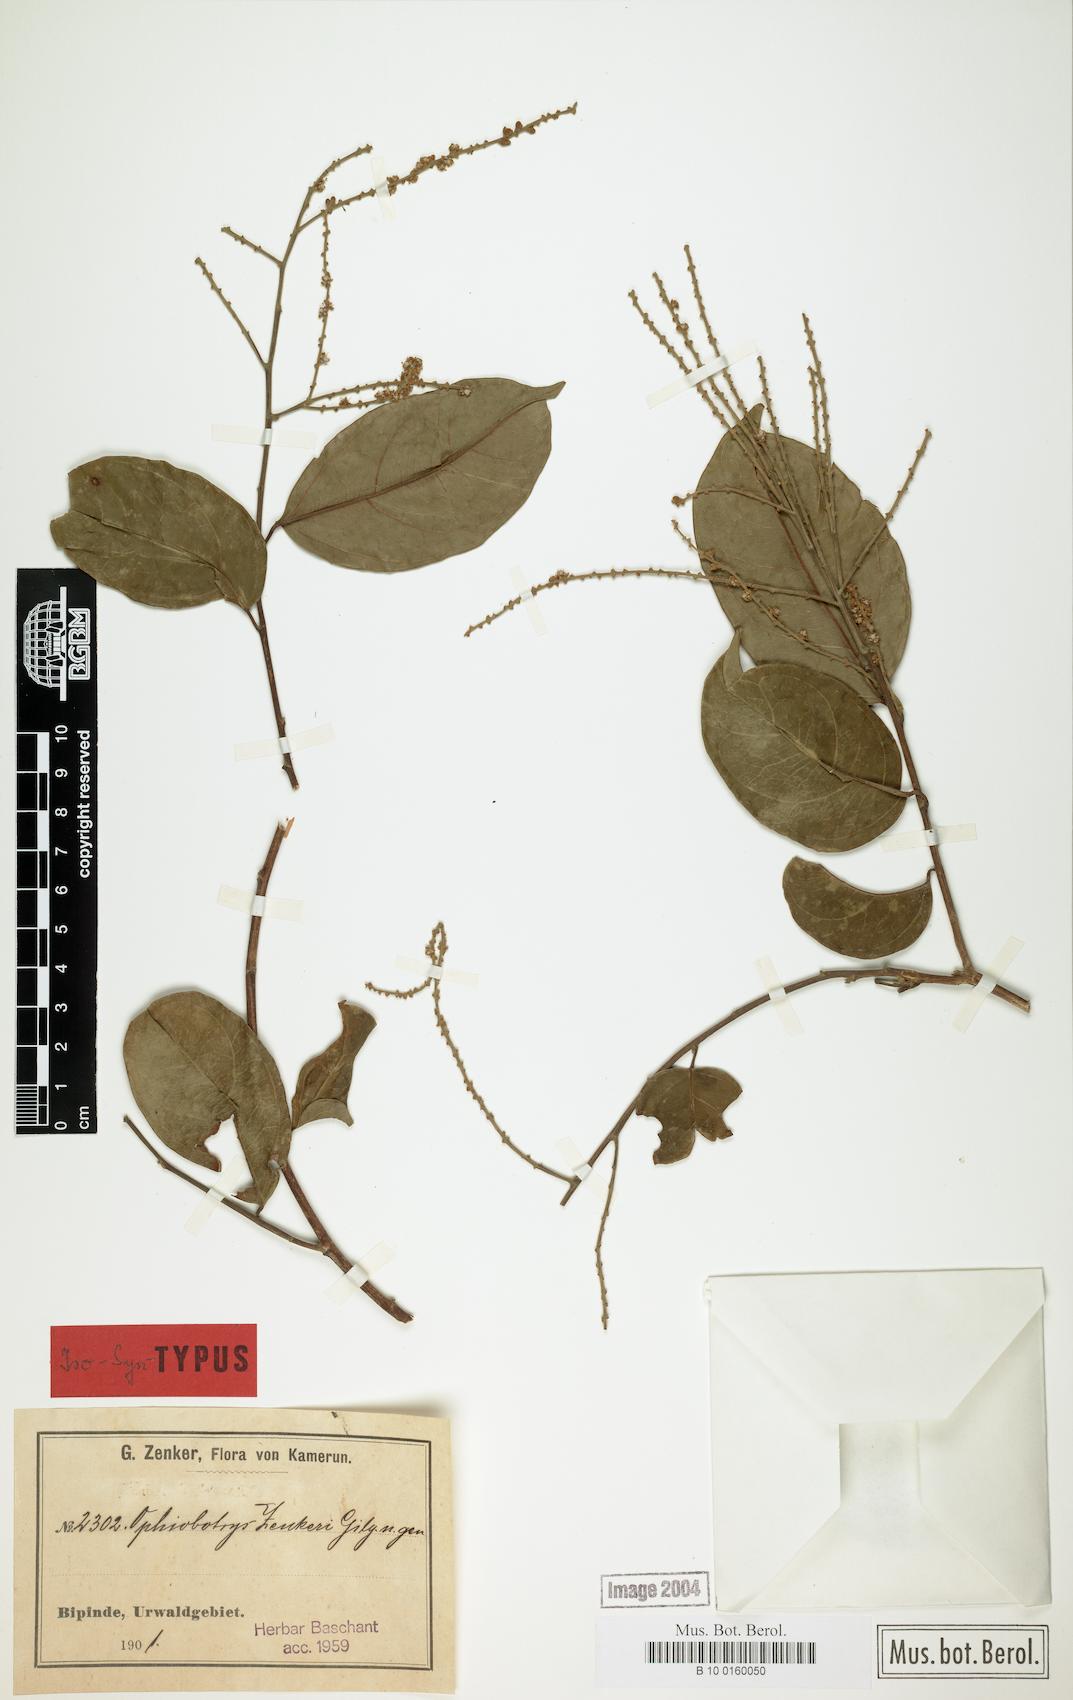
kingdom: Plantae
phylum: Tracheophyta
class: Magnoliopsida
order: Malpighiales
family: Salicaceae
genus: Ophiobotrys
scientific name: Ophiobotrys zenkeri
